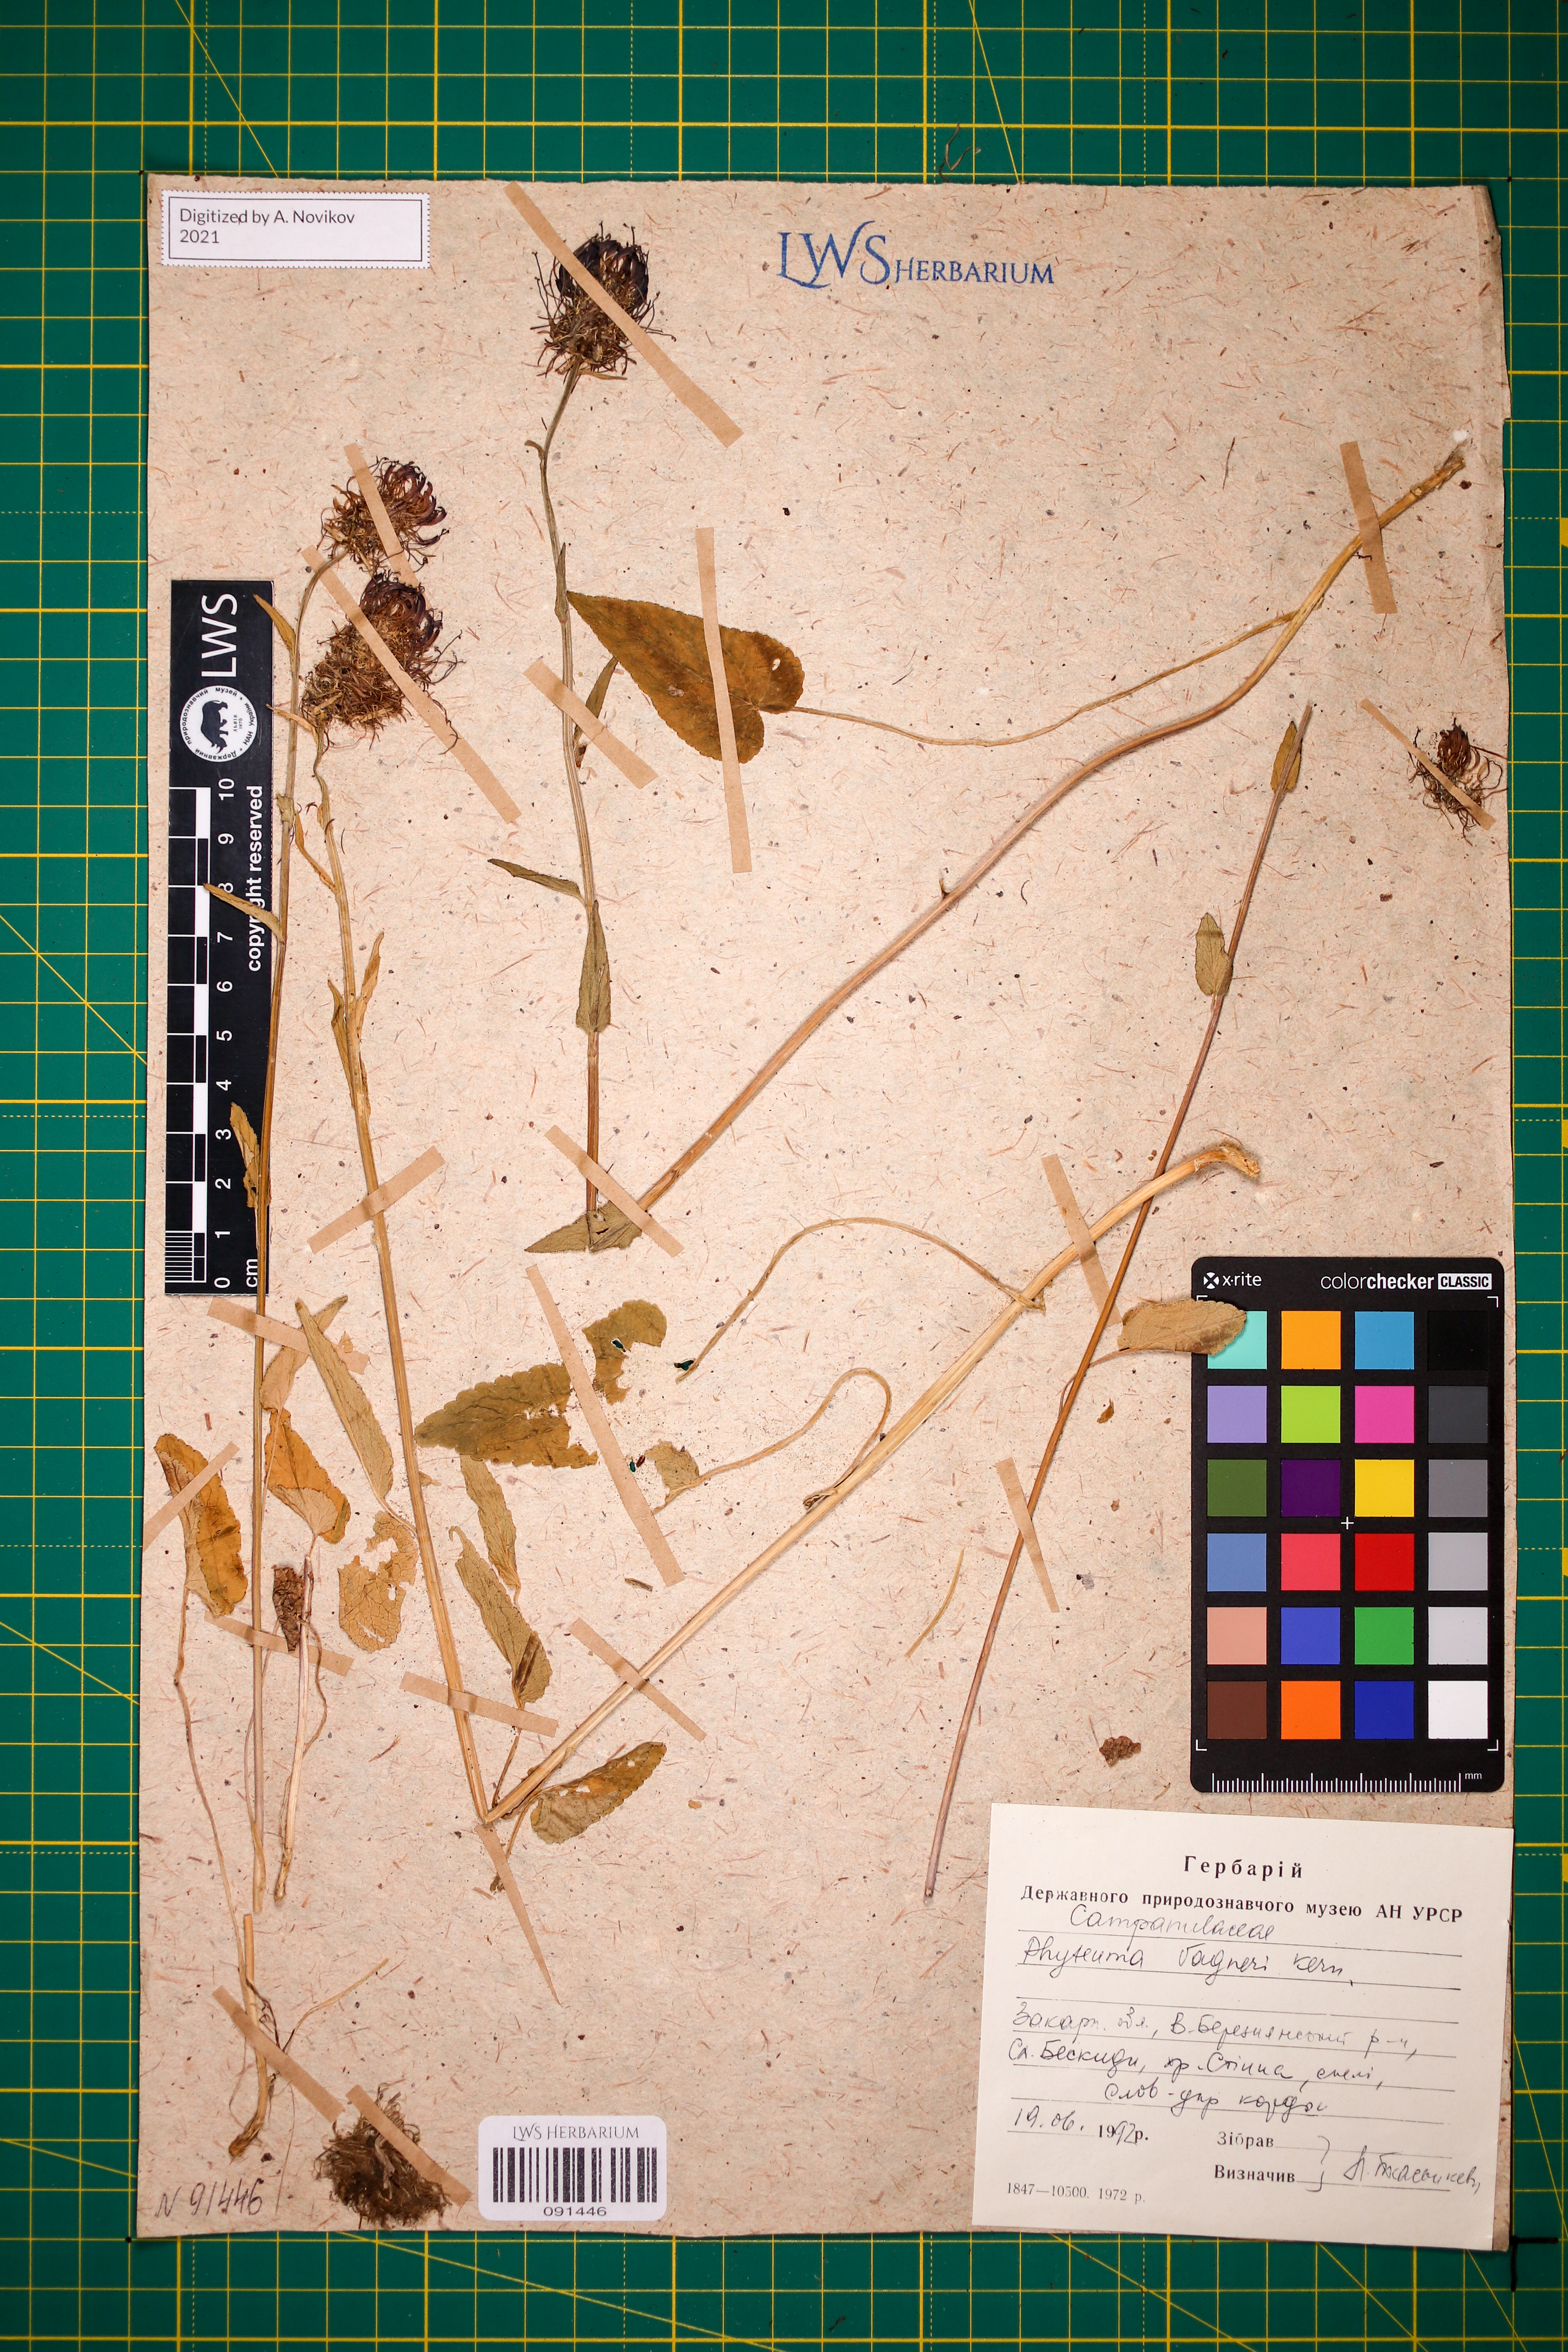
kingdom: Plantae
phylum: Tracheophyta
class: Magnoliopsida
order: Asterales
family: Campanulaceae
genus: Phyteuma
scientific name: Phyteuma vagneri
